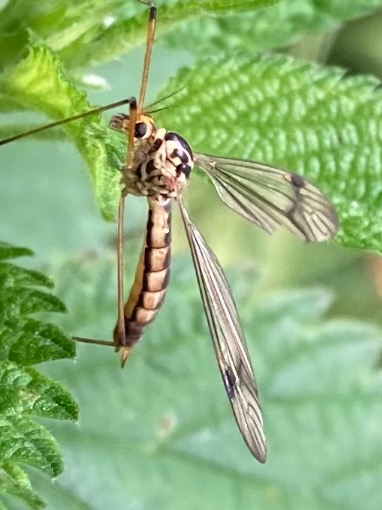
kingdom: Animalia
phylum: Arthropoda
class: Insecta
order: Diptera
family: Tipulidae
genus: Nephrotoma
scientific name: Nephrotoma quadrifaria
